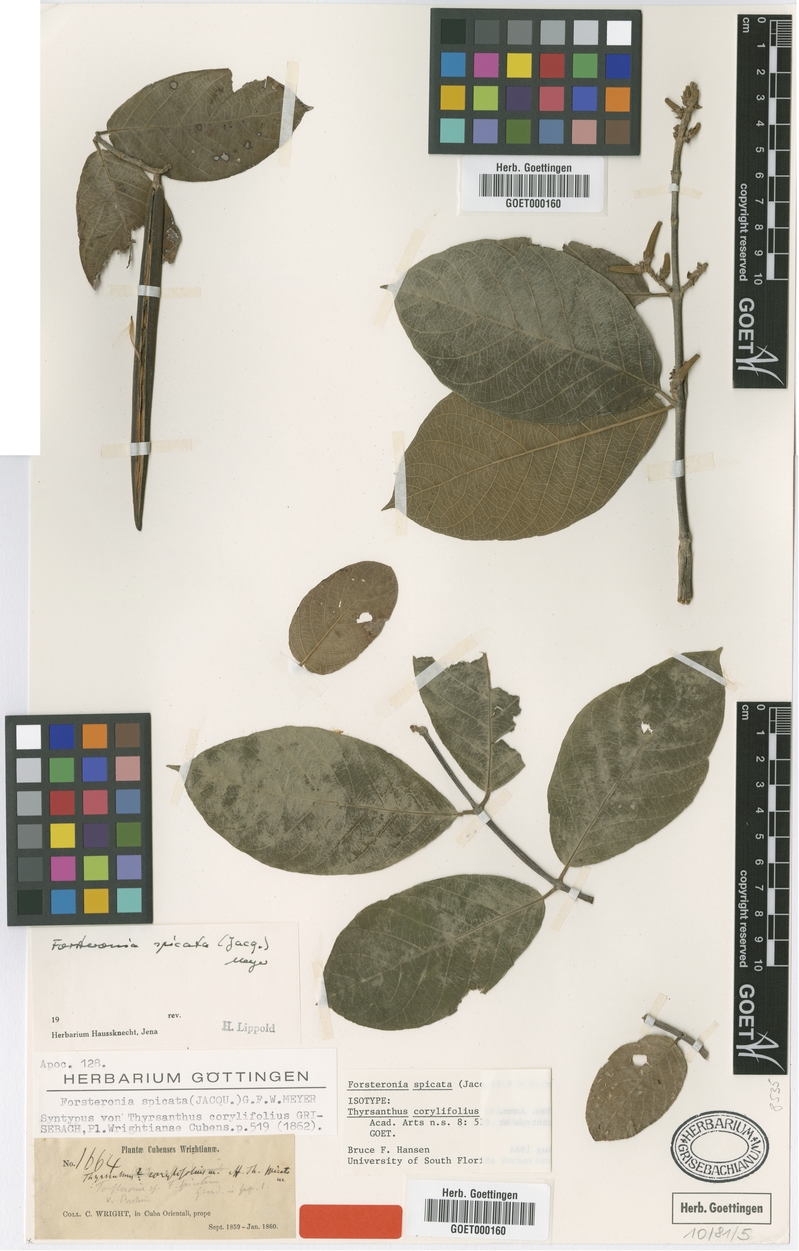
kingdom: Plantae
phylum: Tracheophyta
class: Magnoliopsida
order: Gentianales
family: Apocynaceae
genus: Forsteronia
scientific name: Forsteronia spicata
